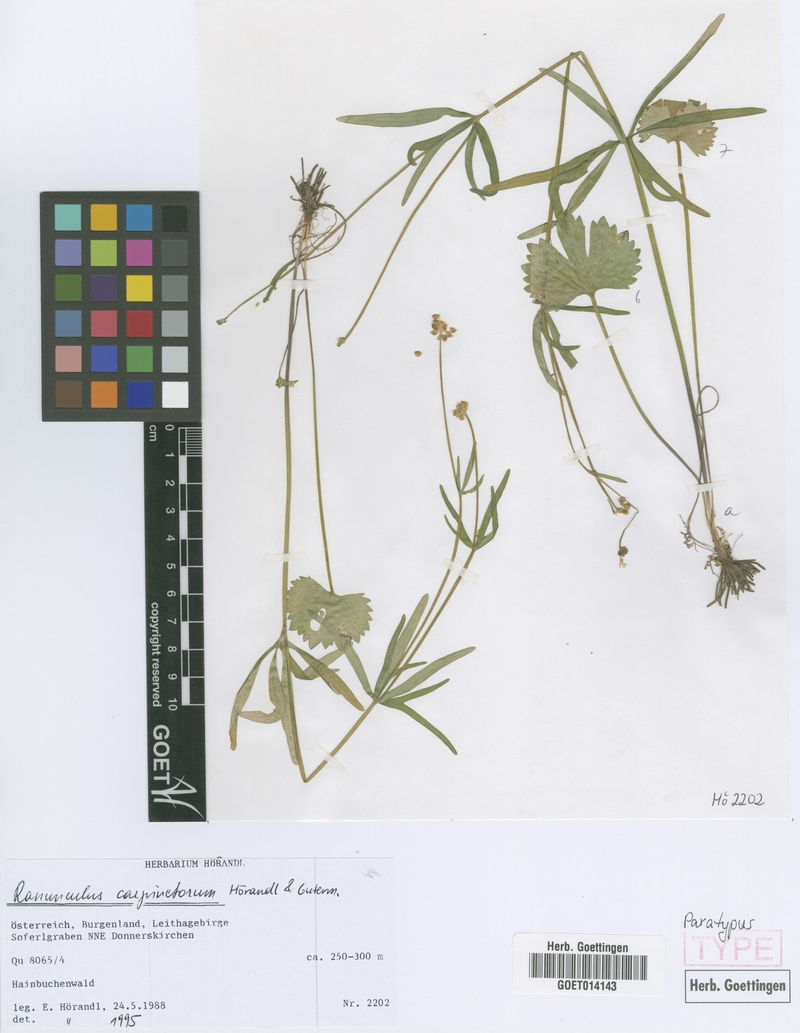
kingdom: Plantae
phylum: Tracheophyta
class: Magnoliopsida
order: Ranunculales
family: Ranunculaceae
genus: Ranunculus
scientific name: Ranunculus carpinetorum
